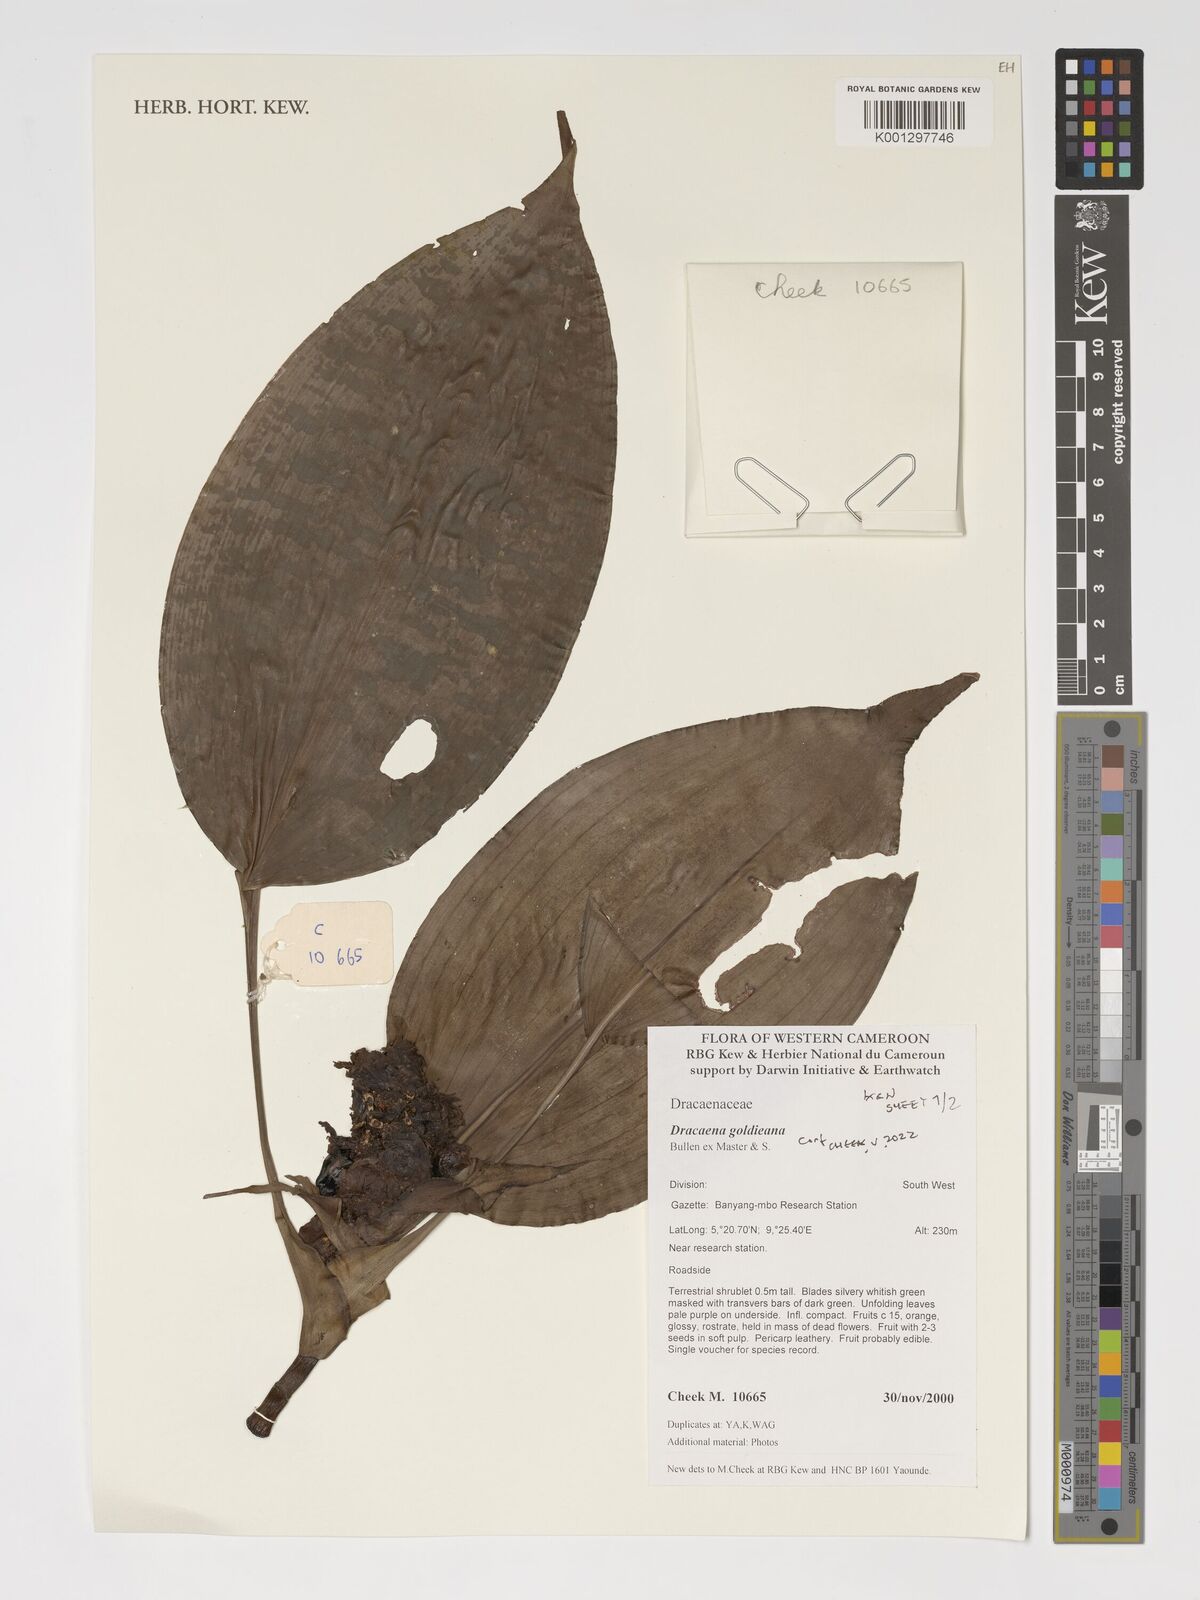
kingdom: Plantae
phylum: Tracheophyta
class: Liliopsida
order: Asparagales
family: Asparagaceae
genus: Dracaena
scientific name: Dracaena goldieana
